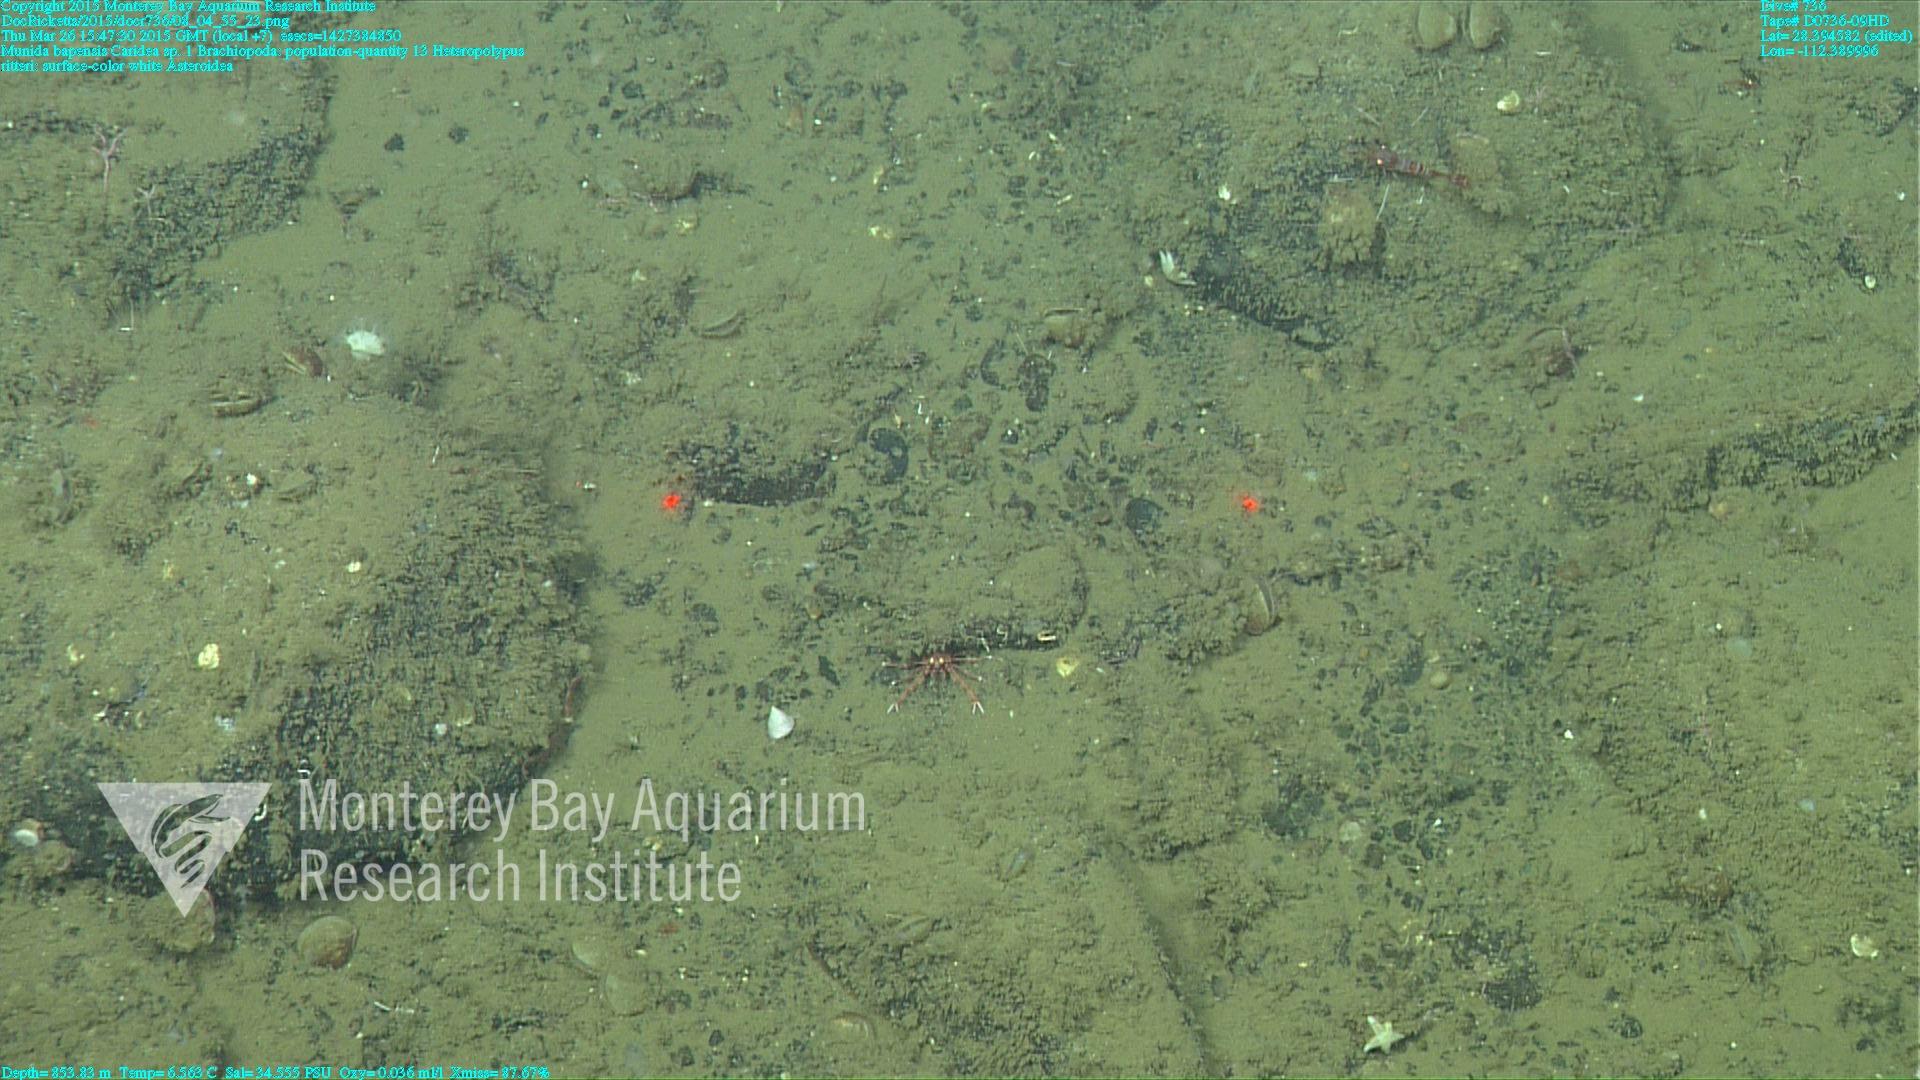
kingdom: Animalia
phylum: Cnidaria
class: Anthozoa
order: Scleralcyonacea
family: Coralliidae
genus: Heteropolypus
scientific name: Heteropolypus ritteri
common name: Ritter's soft coral
